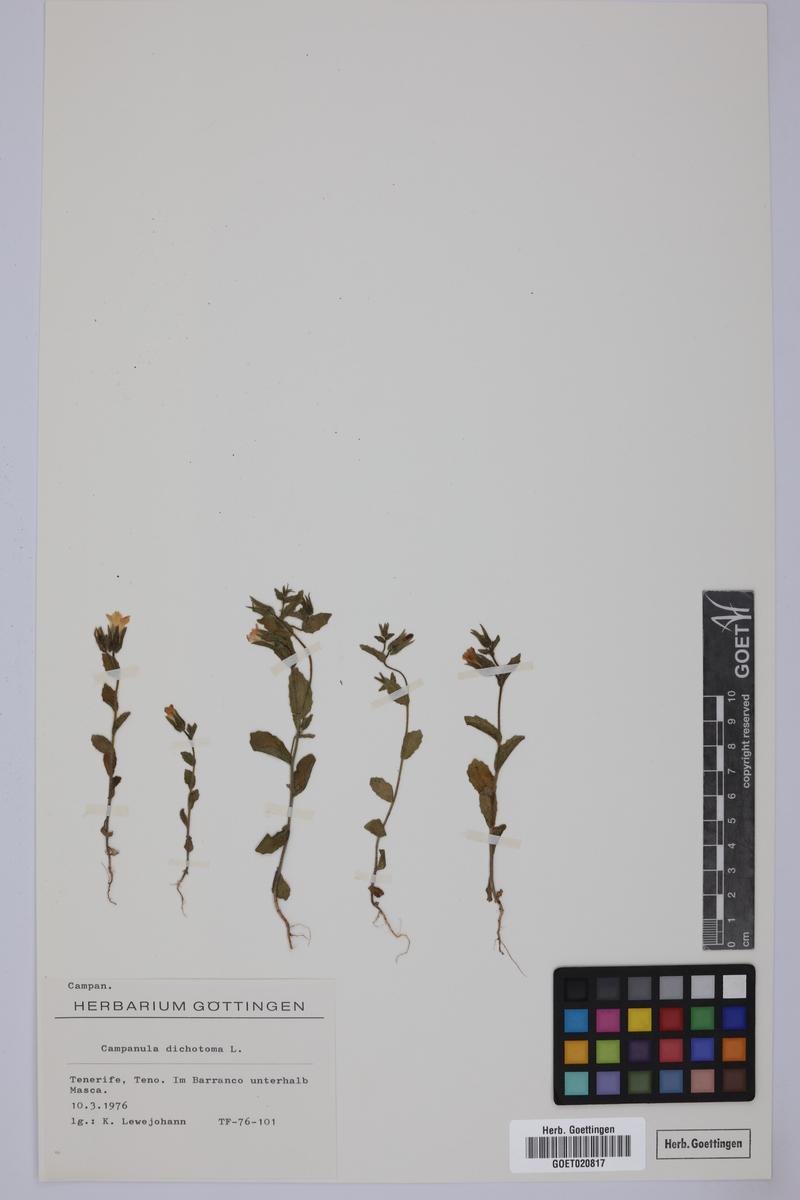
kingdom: Plantae
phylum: Tracheophyta
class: Magnoliopsida
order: Asterales
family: Campanulaceae
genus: Campanula
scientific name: Campanula dichotoma
